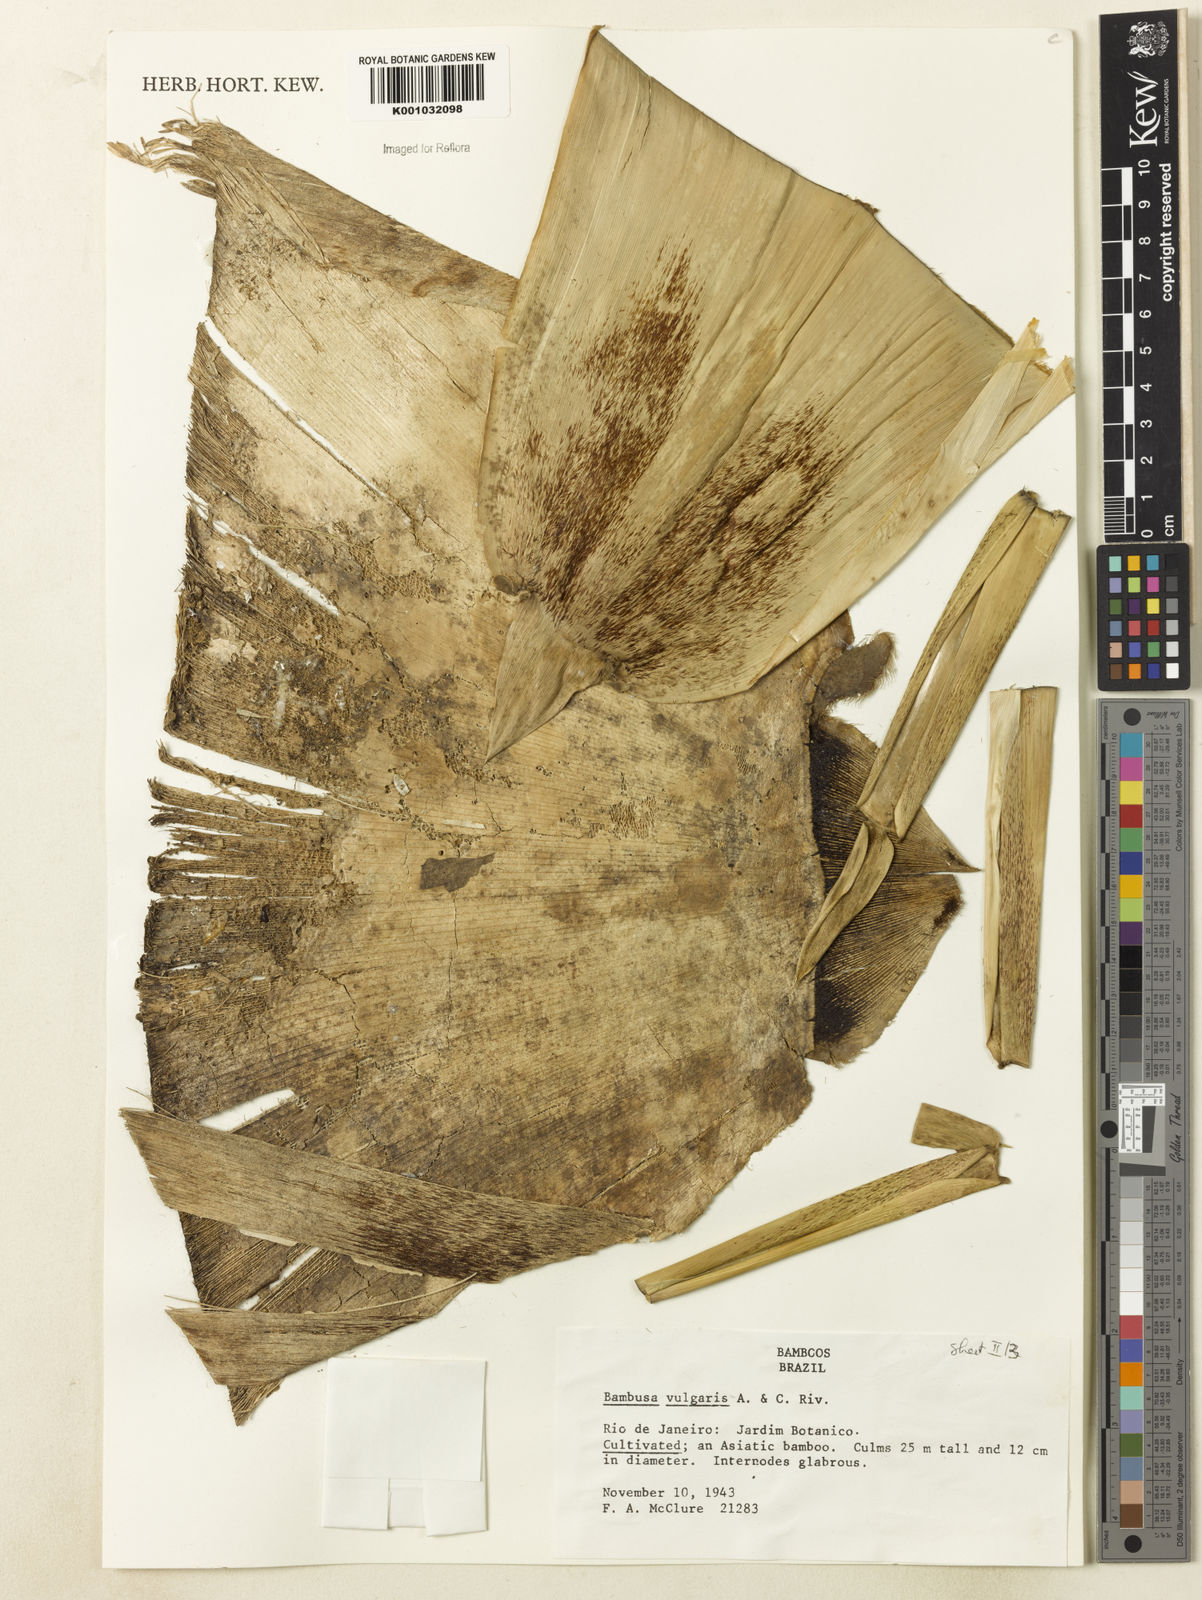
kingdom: Plantae
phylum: Tracheophyta
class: Liliopsida
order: Poales
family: Poaceae
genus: Bambusa
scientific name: Bambusa vulgaris
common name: Common bamboo
